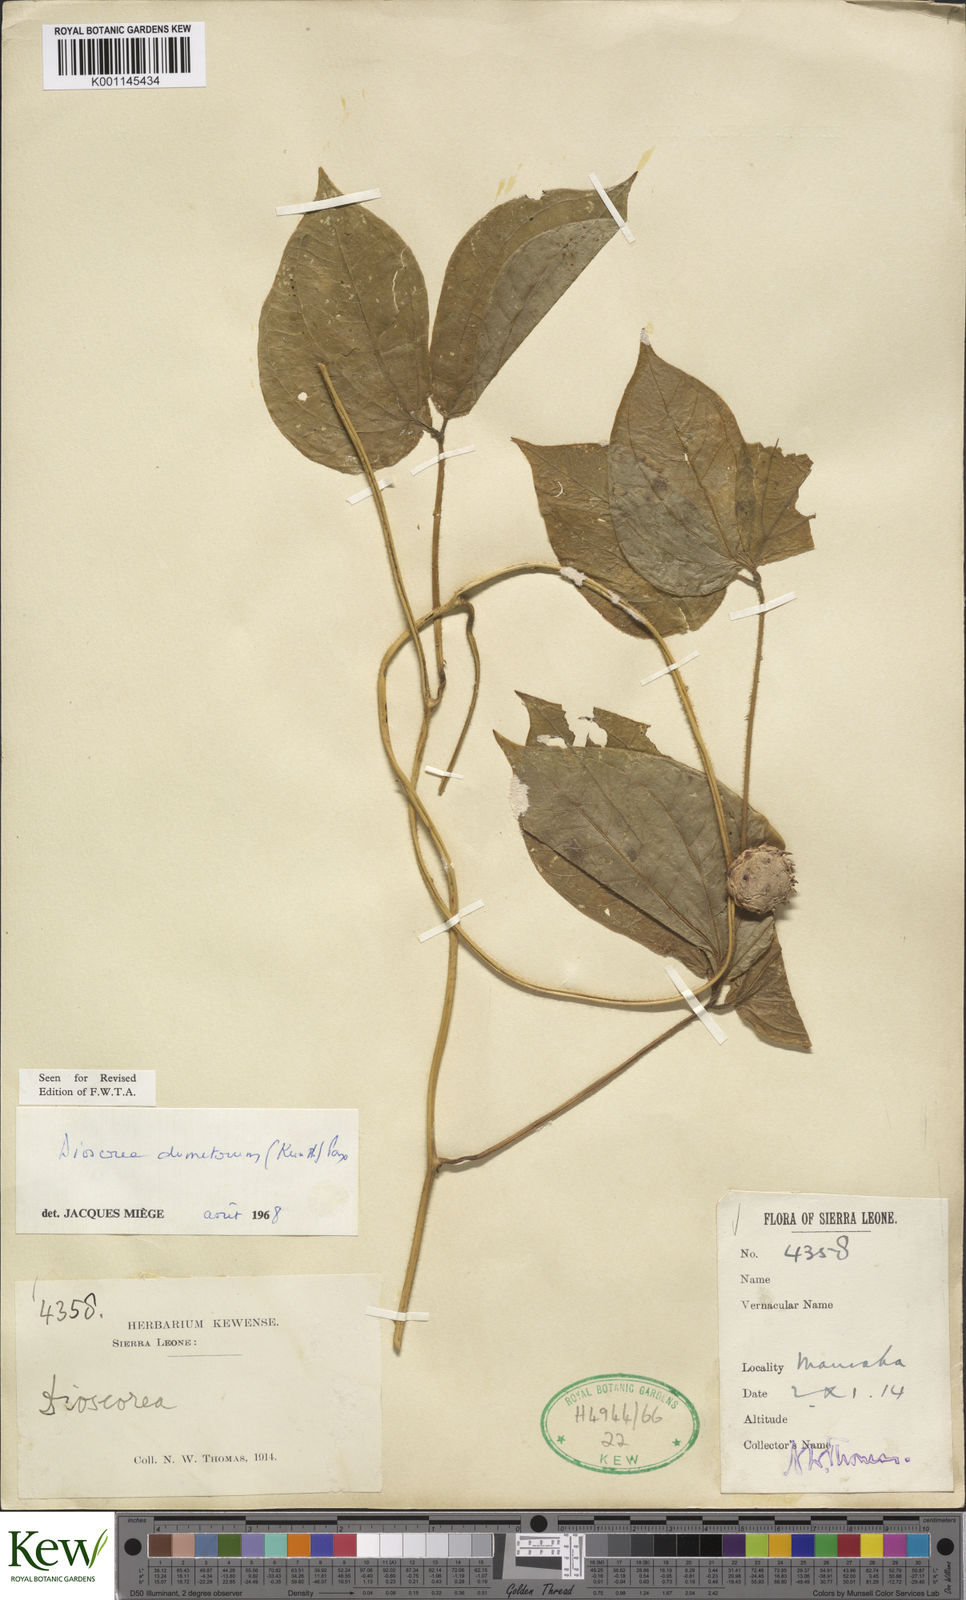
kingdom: Plantae
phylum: Tracheophyta
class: Liliopsida
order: Dioscoreales
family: Dioscoreaceae
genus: Dioscorea
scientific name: Dioscorea dumetorum
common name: African bitter yam
